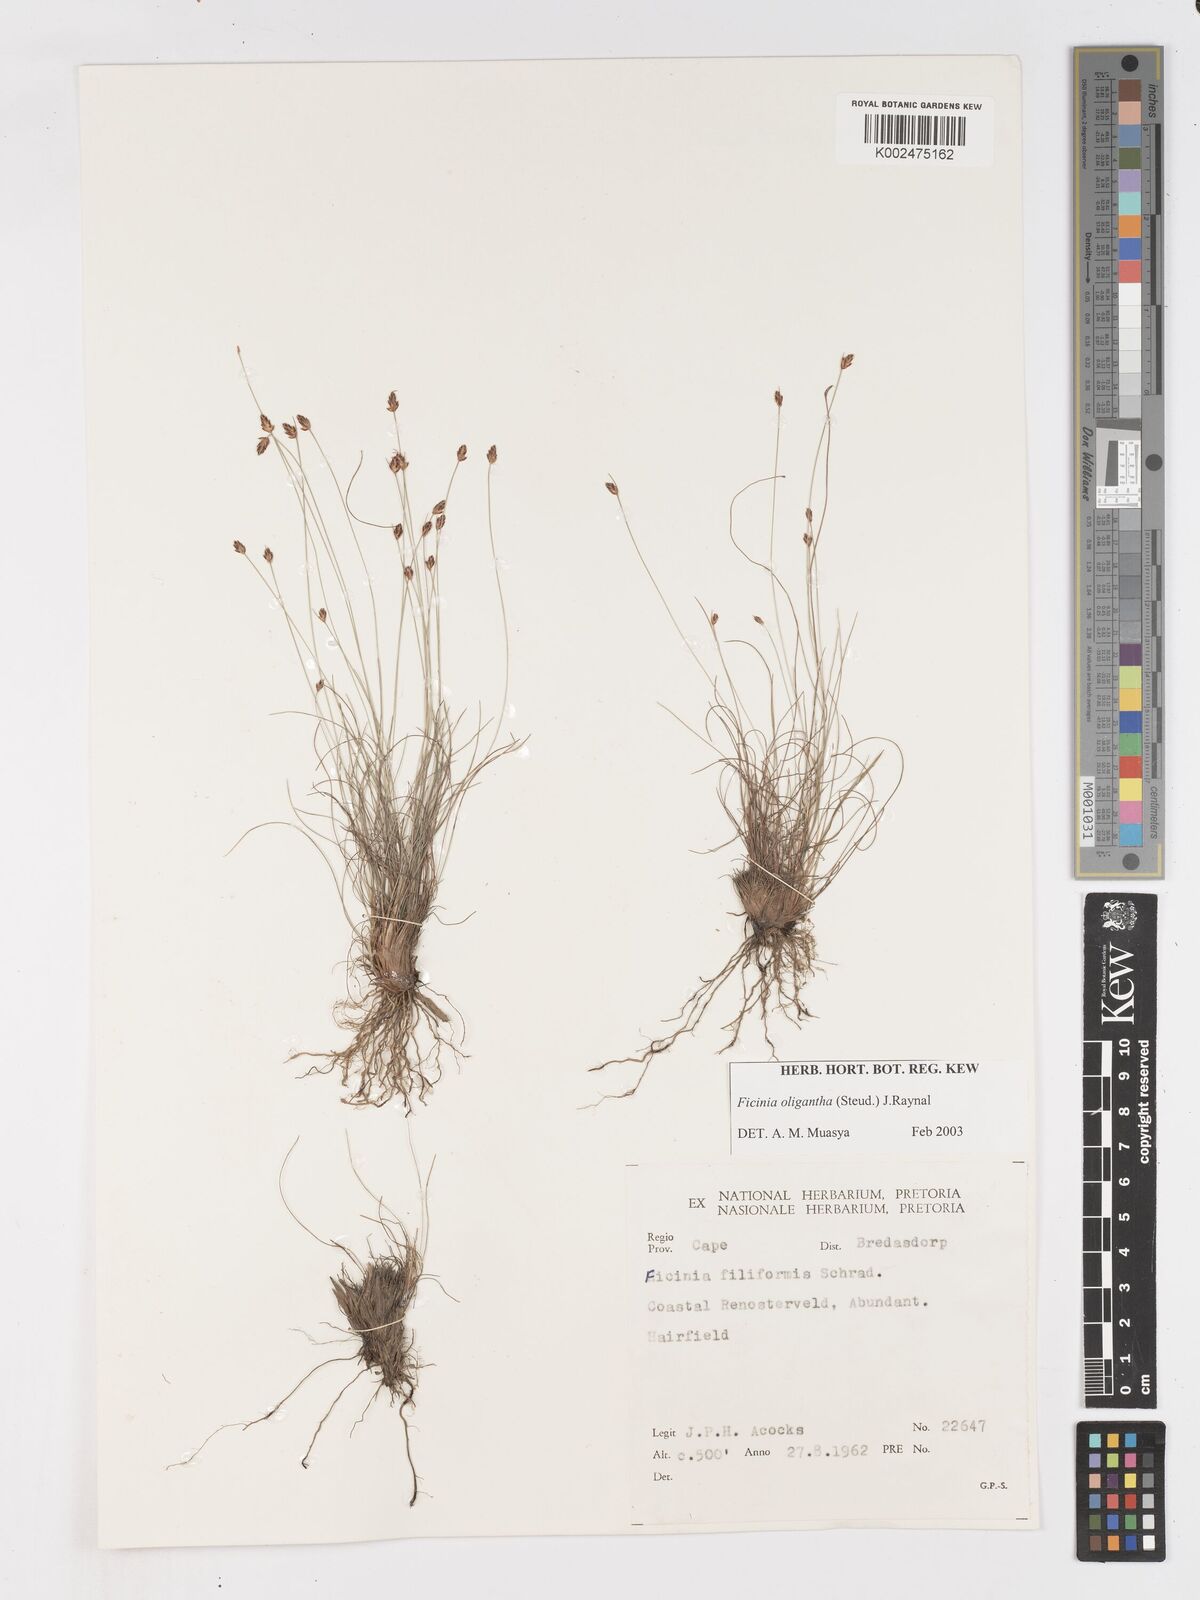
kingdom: Plantae
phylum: Tracheophyta
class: Liliopsida
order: Poales
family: Cyperaceae
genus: Ficinia
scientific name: Ficinia stolonifera
